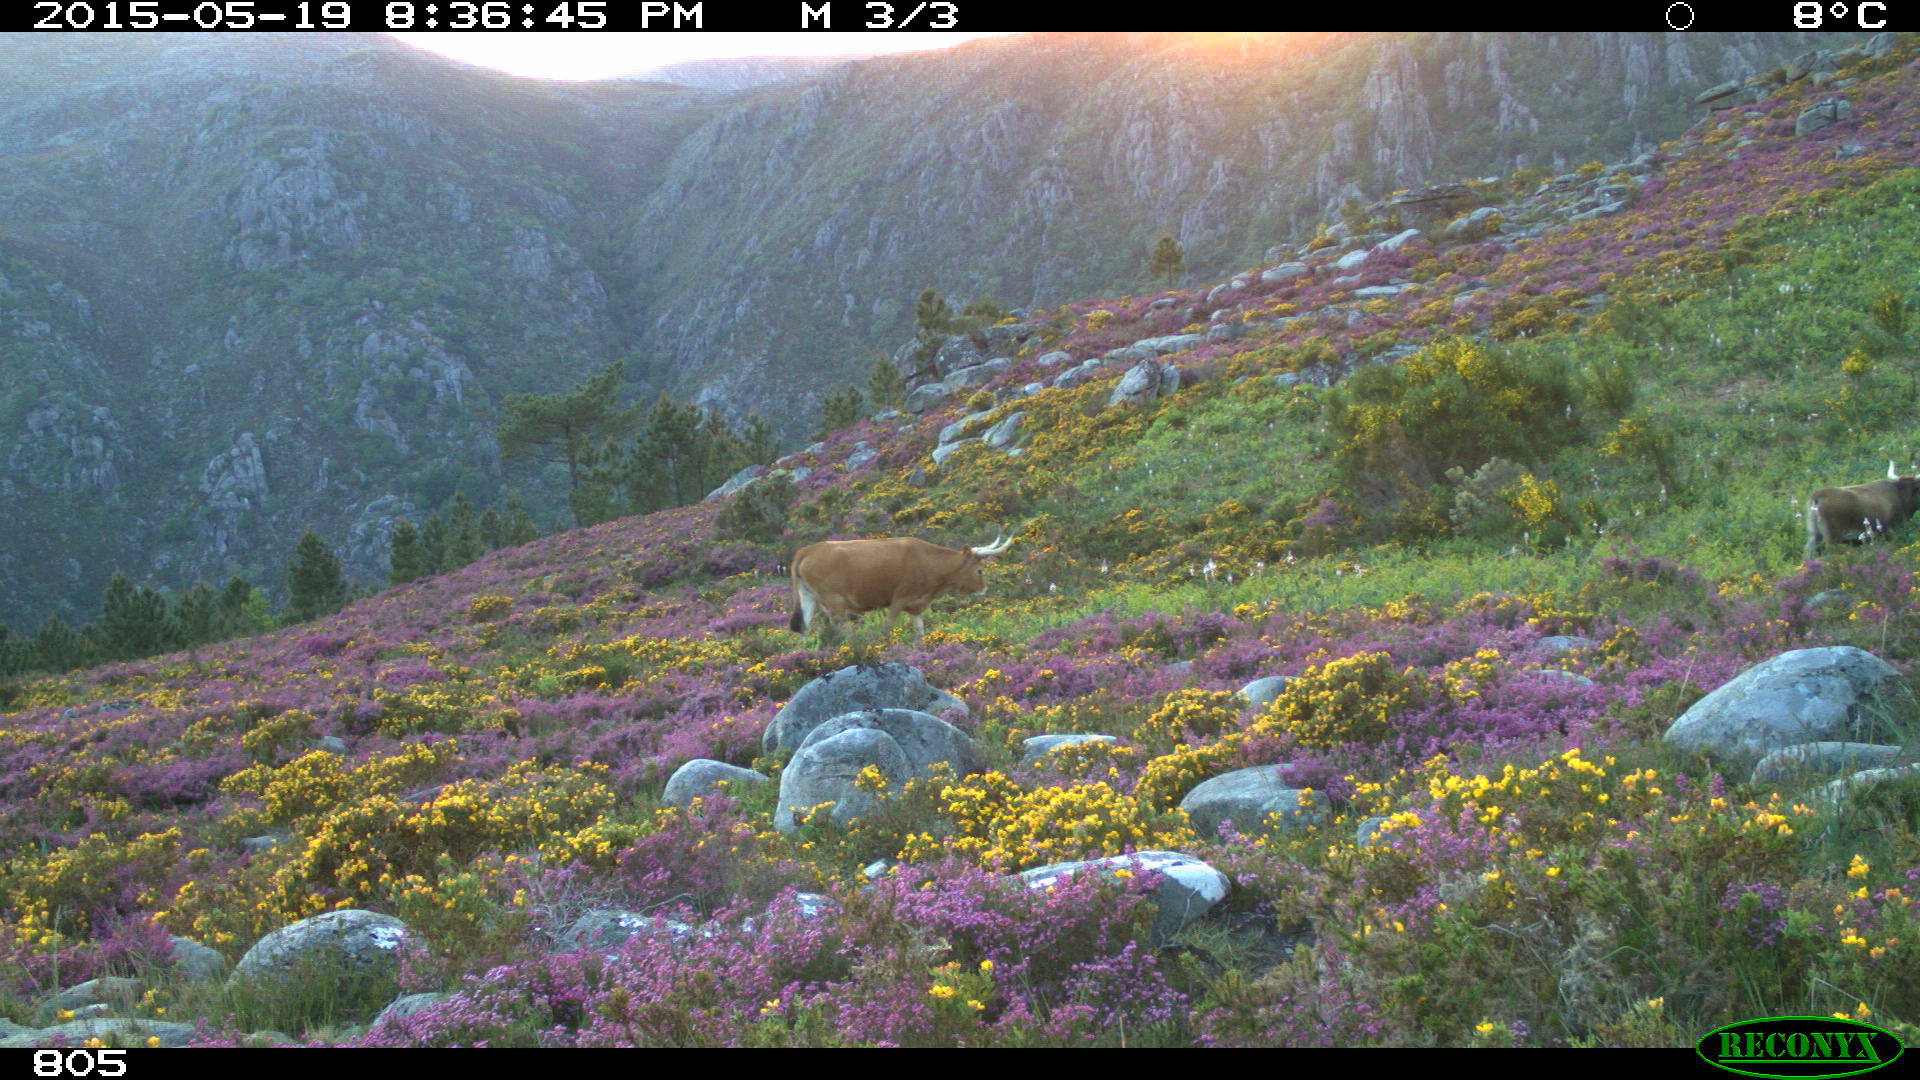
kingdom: Animalia
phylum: Chordata
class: Mammalia
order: Artiodactyla
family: Bovidae
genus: Bos
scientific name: Bos taurus
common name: Domesticated cattle
